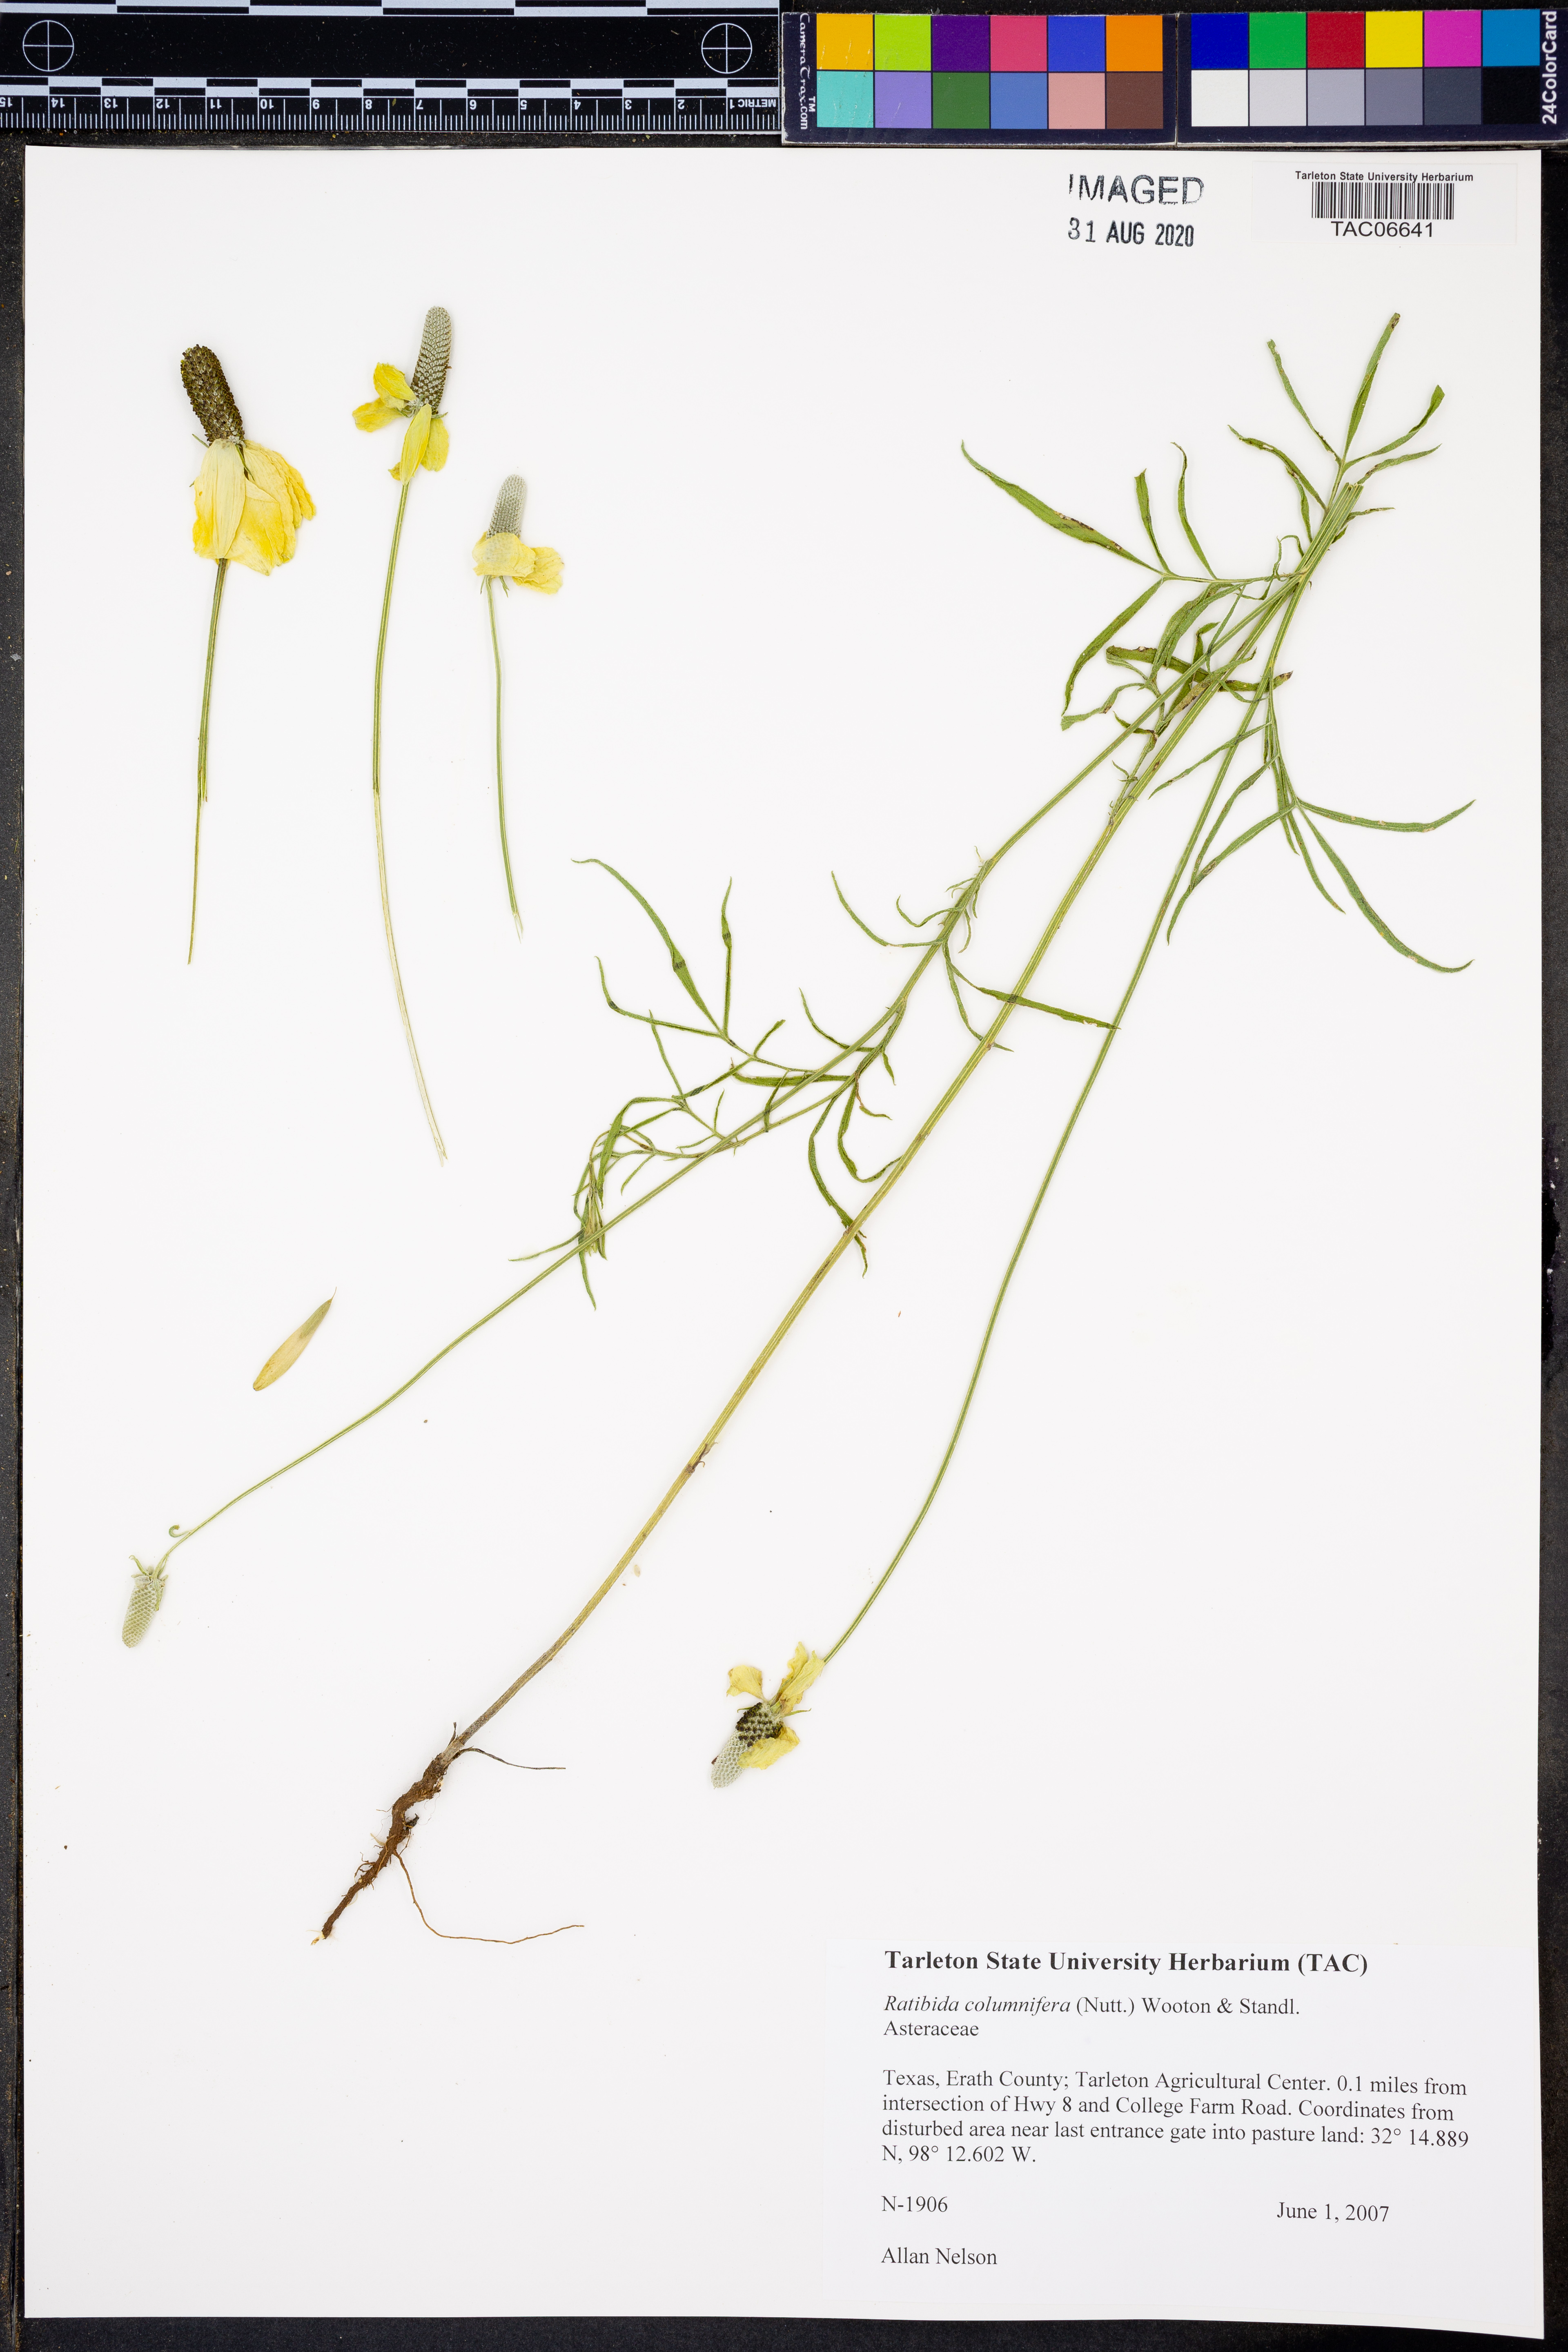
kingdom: Plantae
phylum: Tracheophyta
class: Magnoliopsida
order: Asterales
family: Asteraceae
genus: Ratibida
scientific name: Ratibida columnifera
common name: Prairie coneflower
